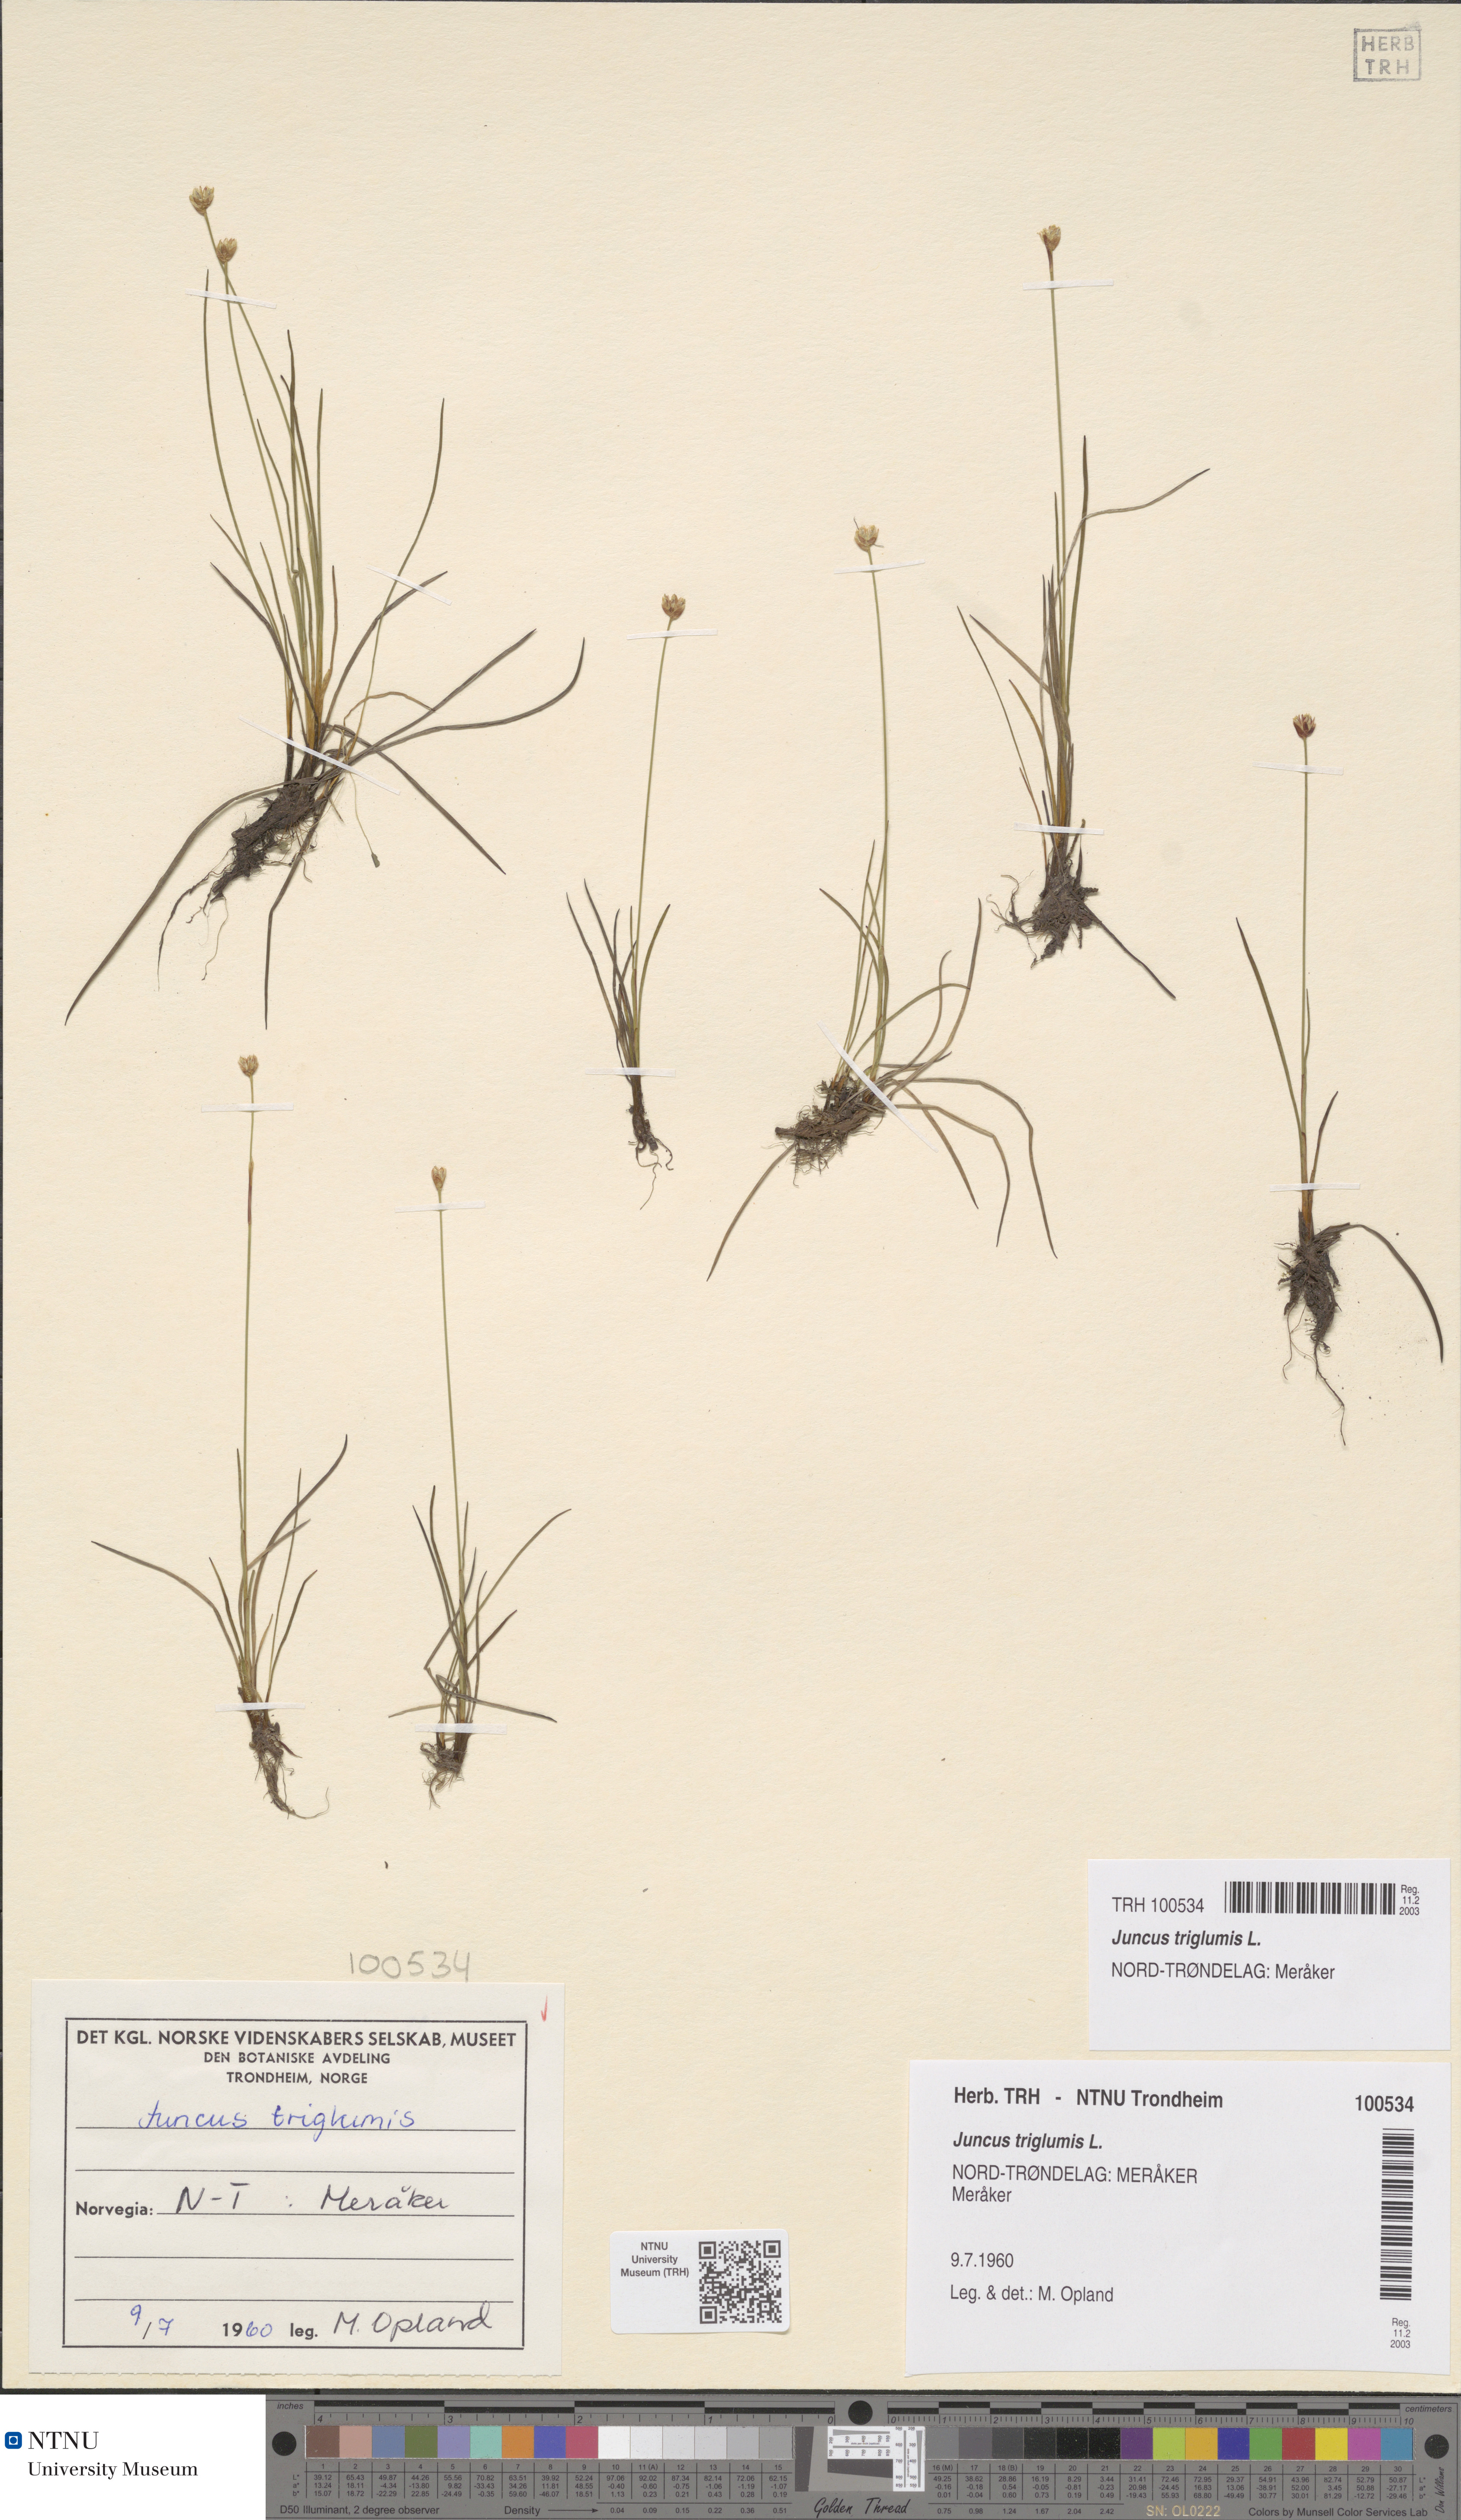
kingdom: Plantae
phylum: Tracheophyta
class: Liliopsida
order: Poales
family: Juncaceae
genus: Juncus
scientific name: Juncus triglumis
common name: Three-flowered rush
